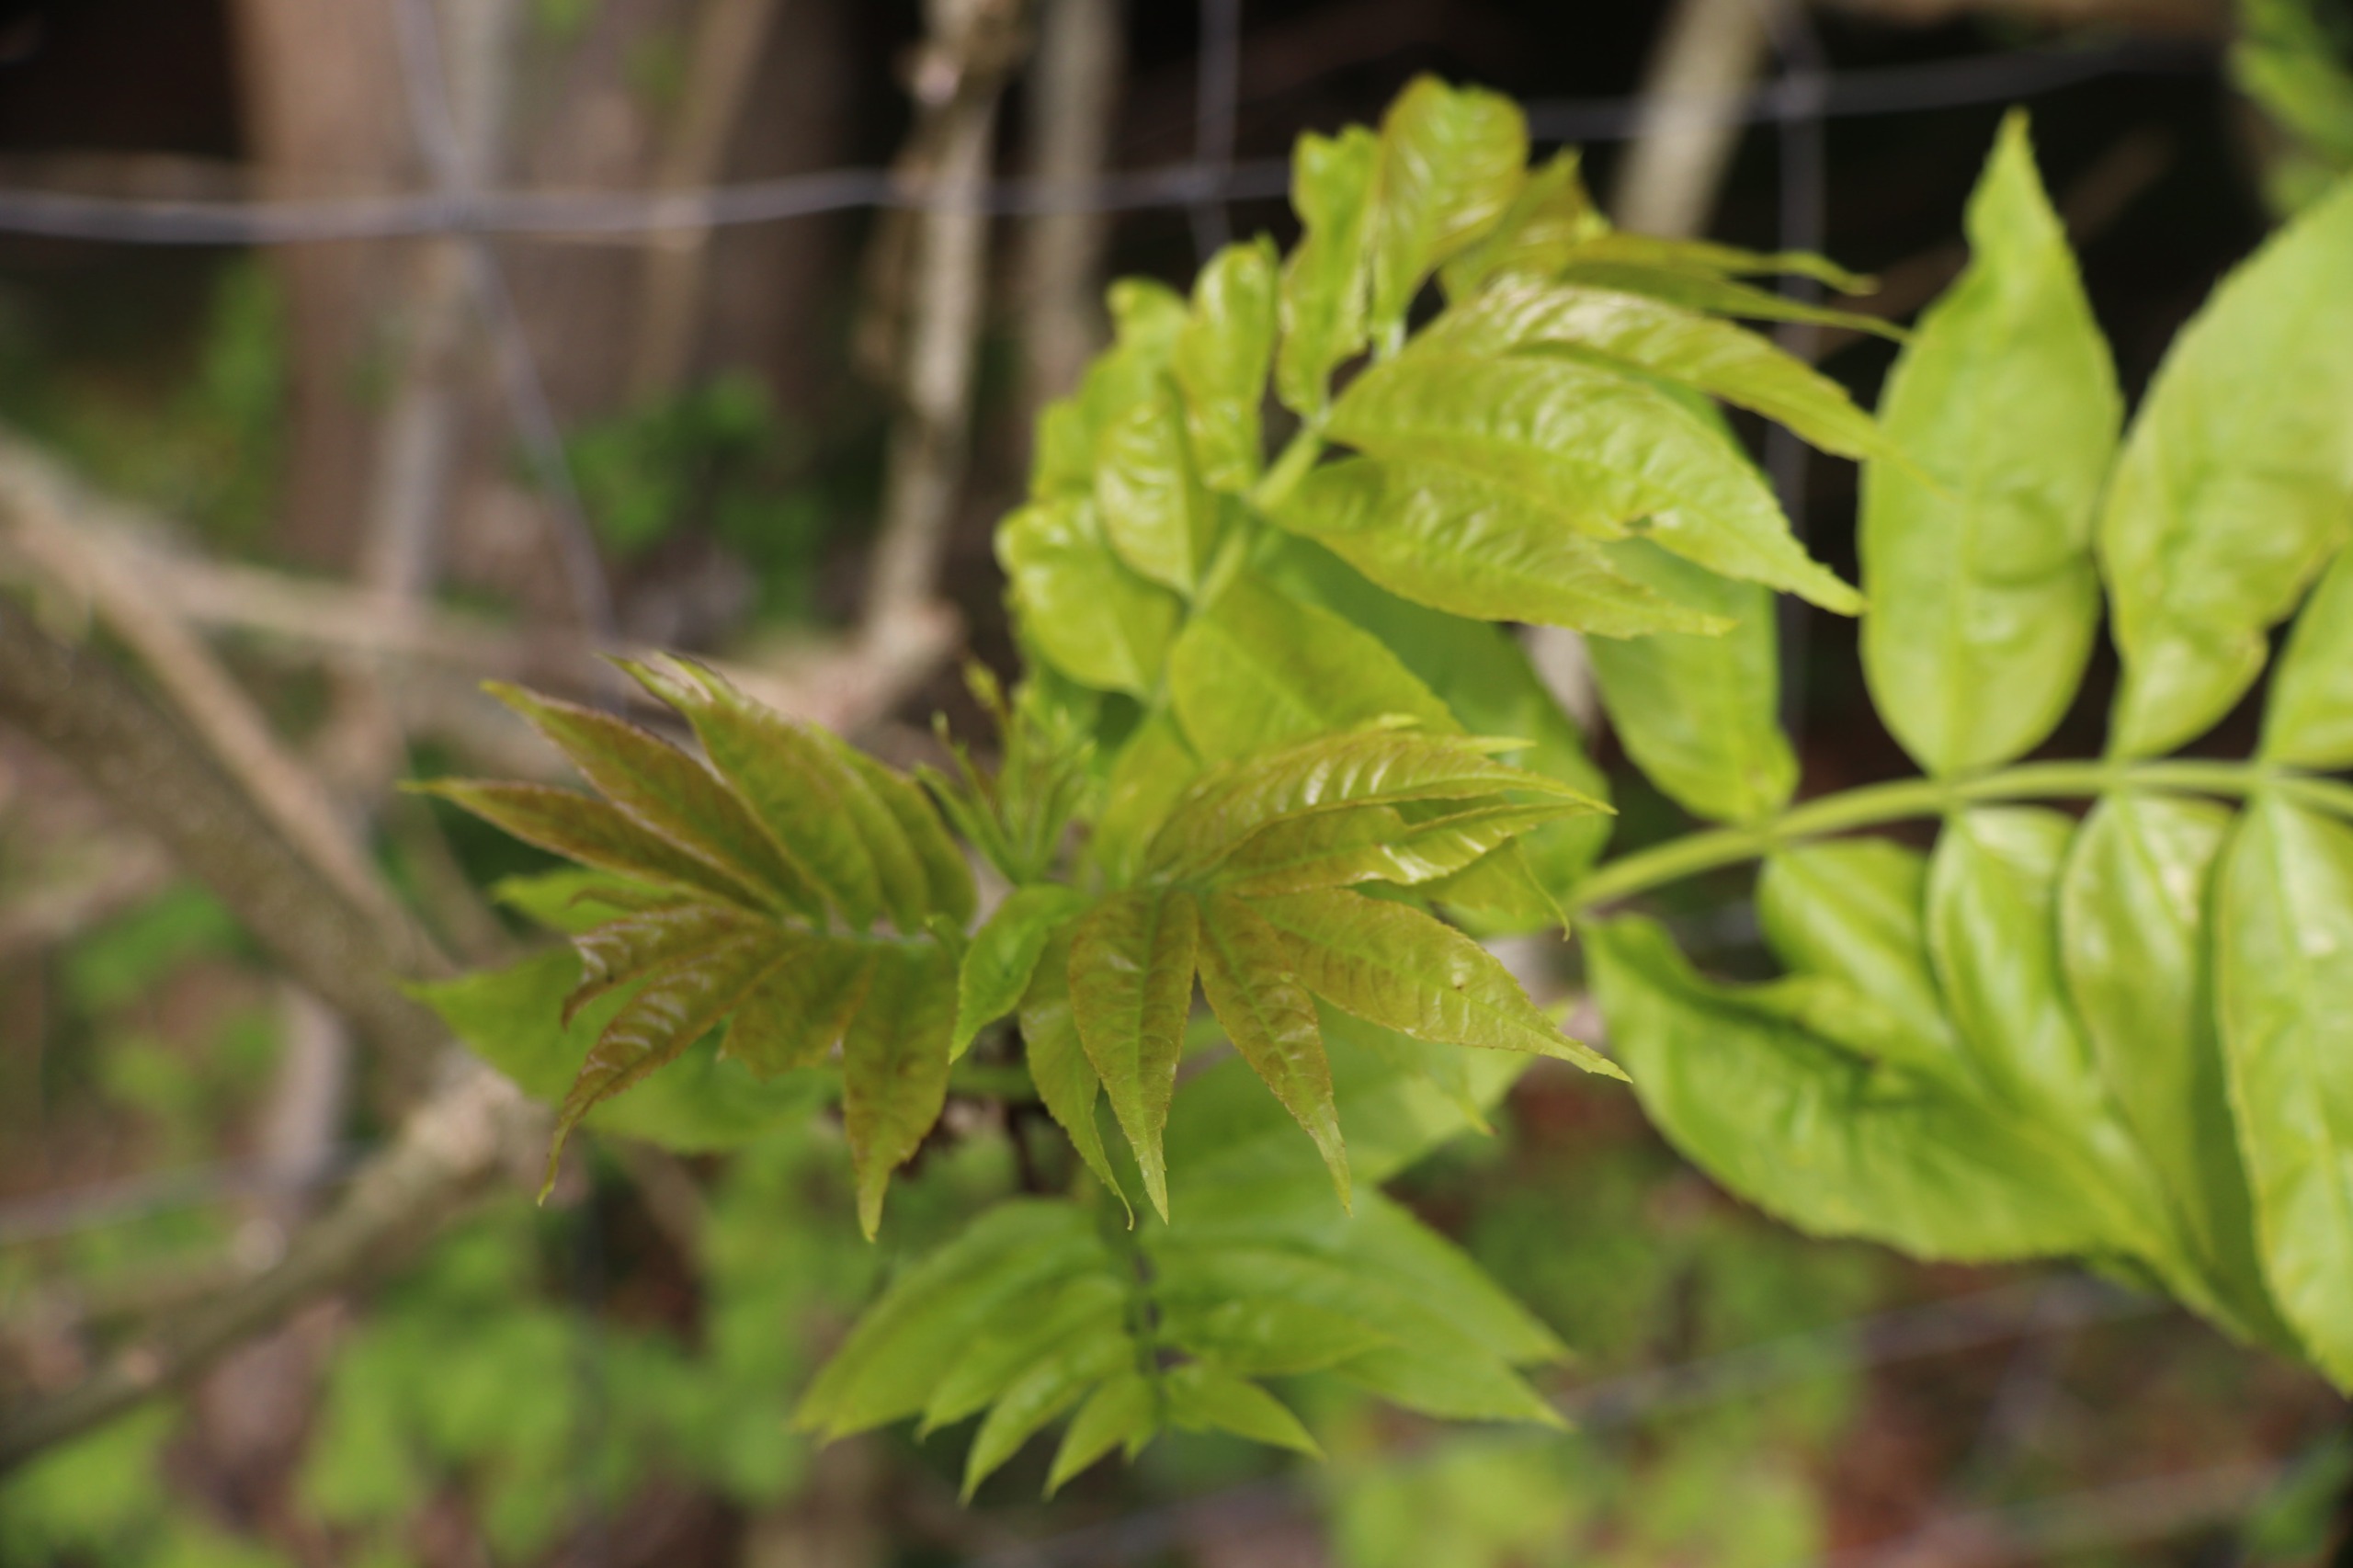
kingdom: Plantae
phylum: Tracheophyta
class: Magnoliopsida
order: Lamiales
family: Oleaceae
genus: Fraxinus
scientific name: Fraxinus excelsior
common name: Ask
